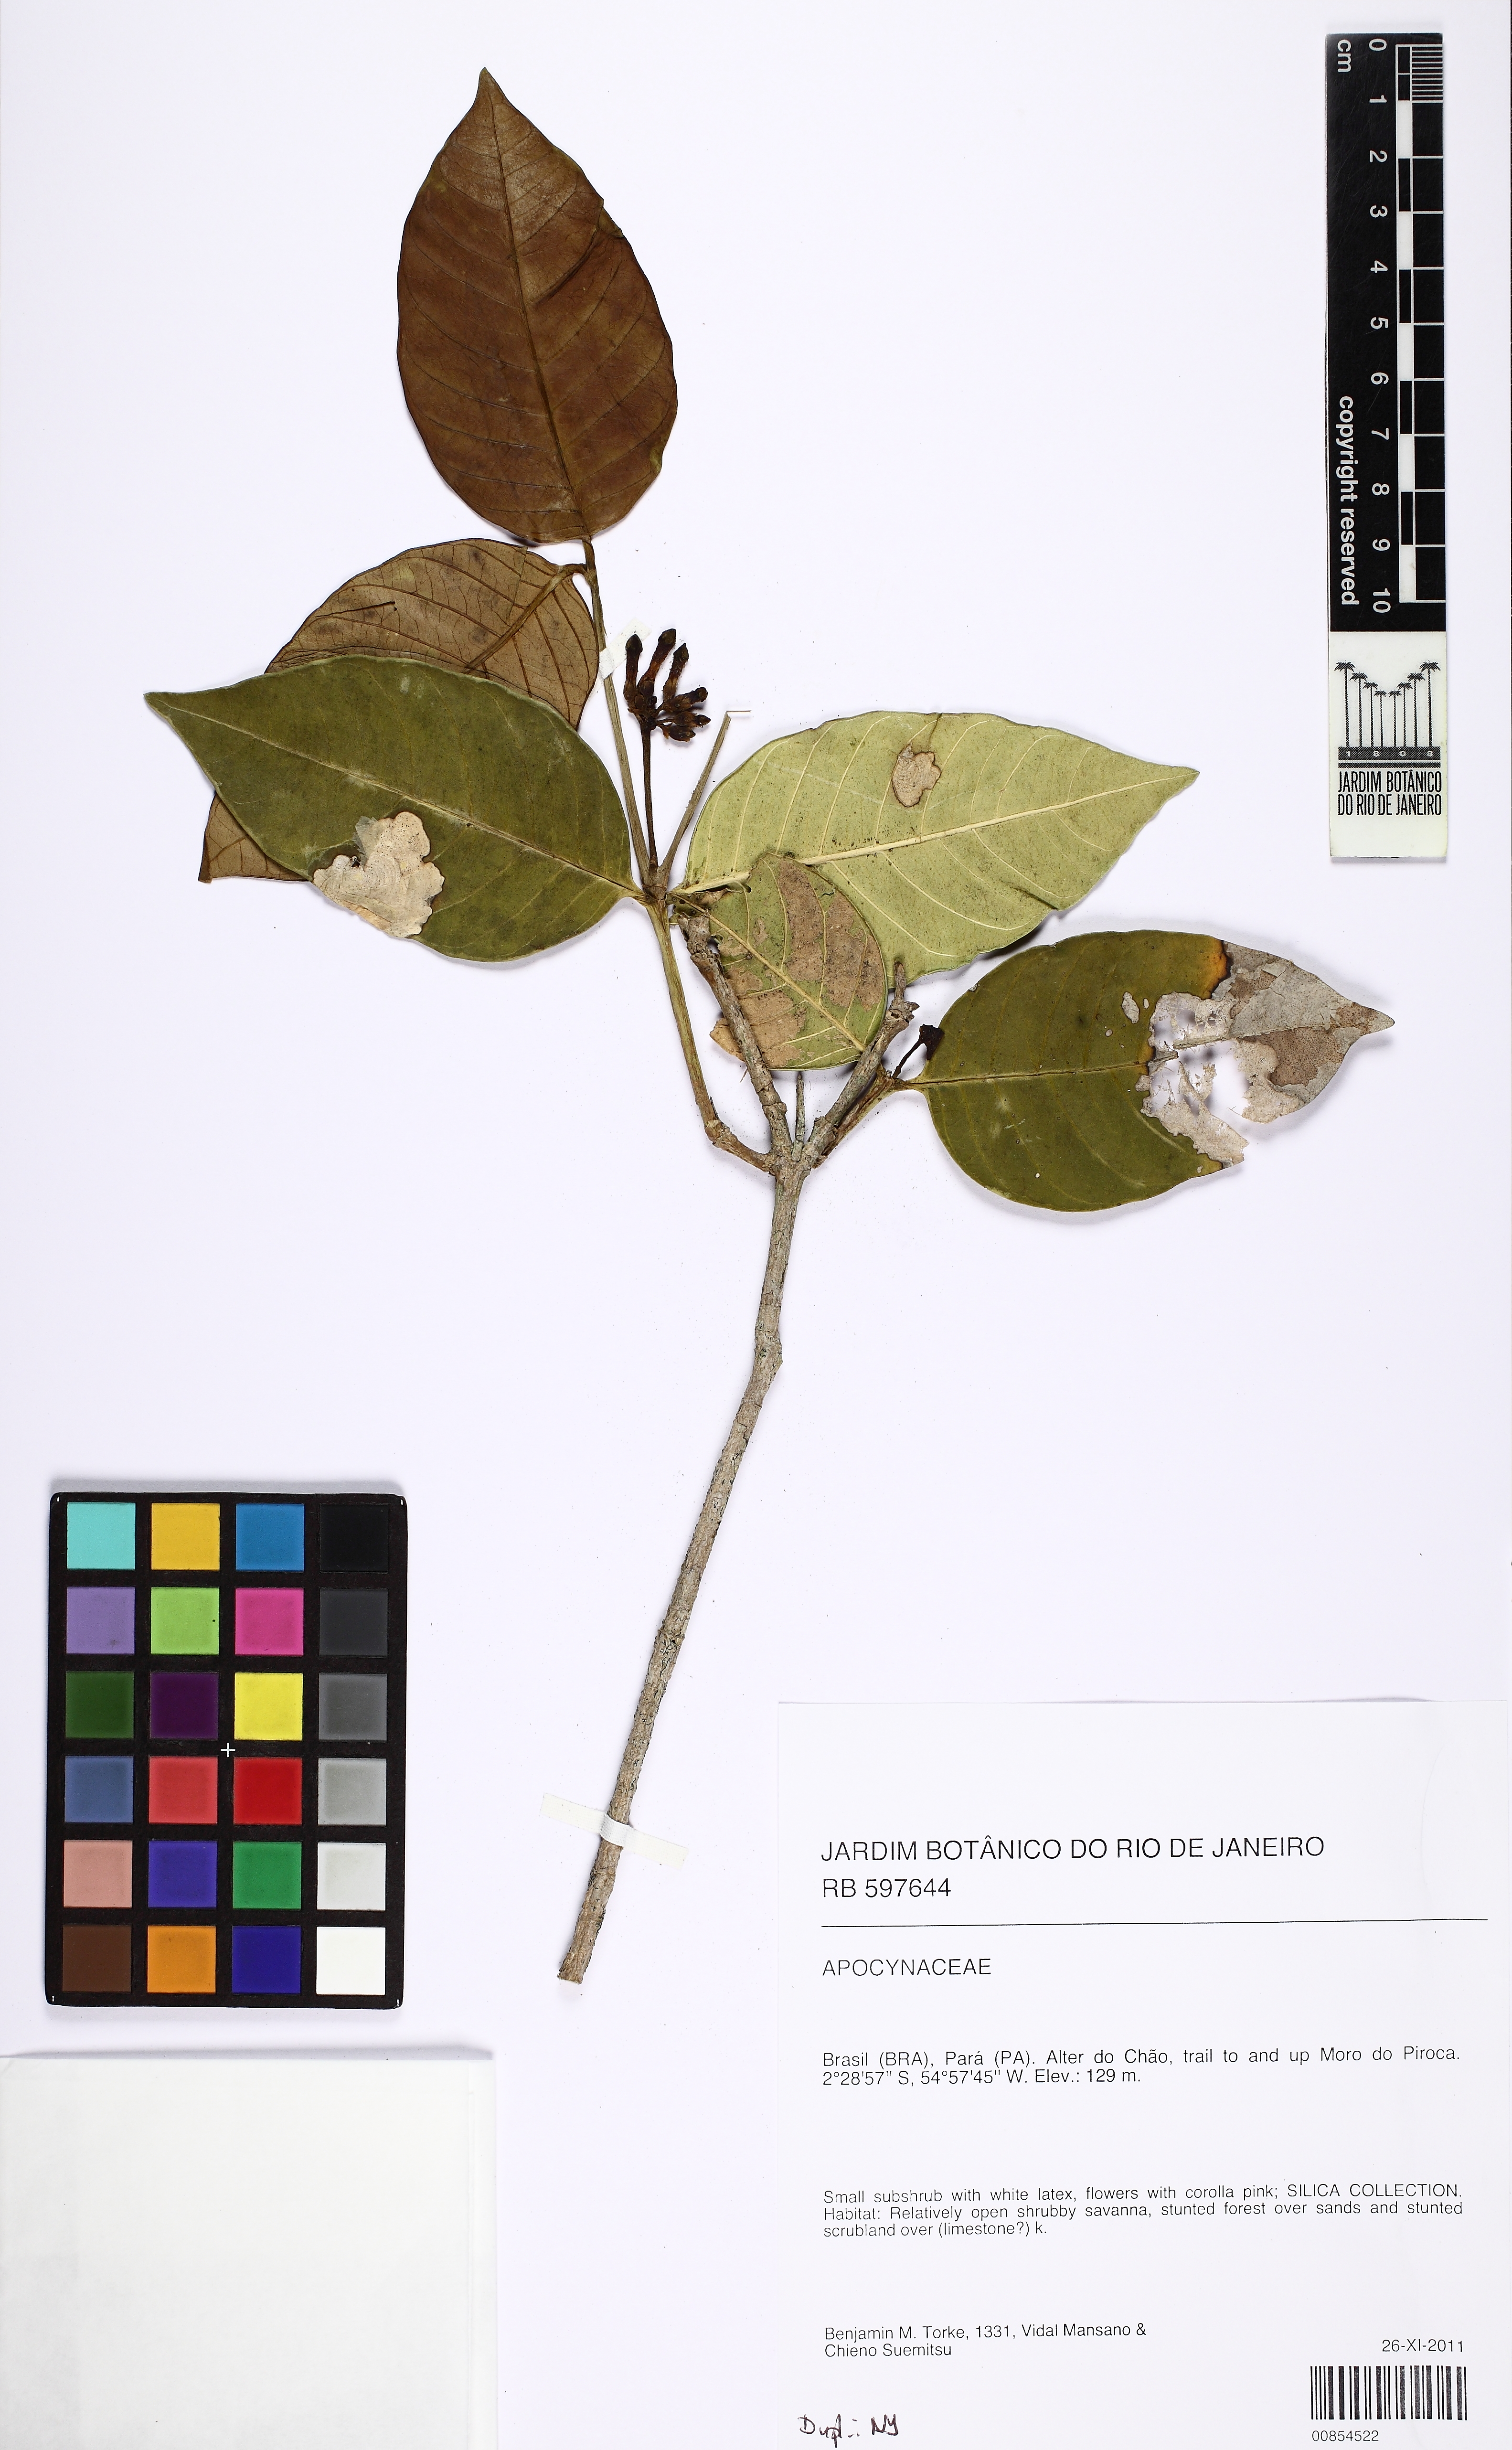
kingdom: Plantae
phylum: Tracheophyta
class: Magnoliopsida
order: Gentianales
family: Apocynaceae
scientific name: Apocynaceae
